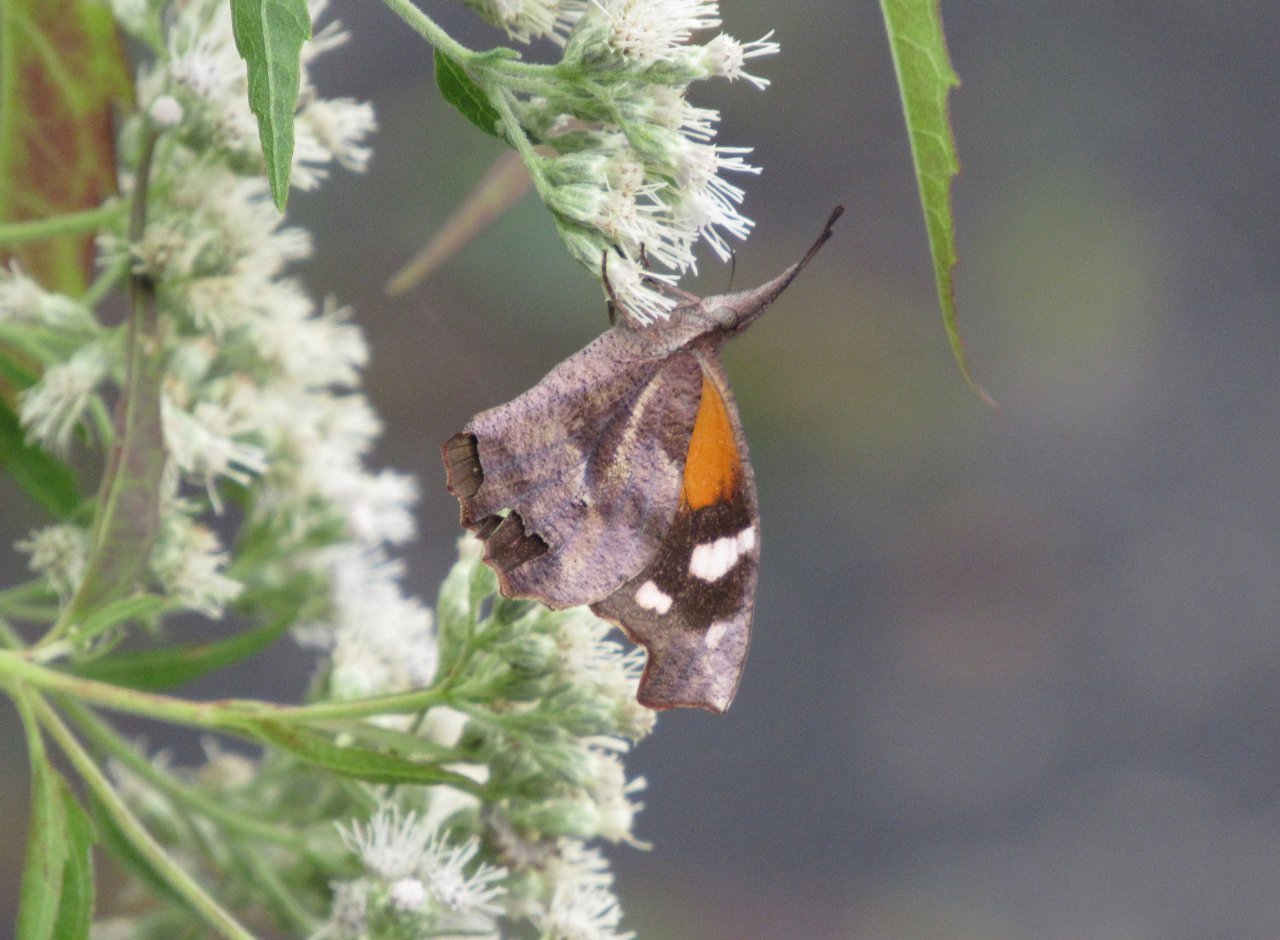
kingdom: Animalia
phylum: Arthropoda
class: Insecta
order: Lepidoptera
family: Nymphalidae
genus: Libytheana
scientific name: Libytheana carinenta
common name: American Snout
